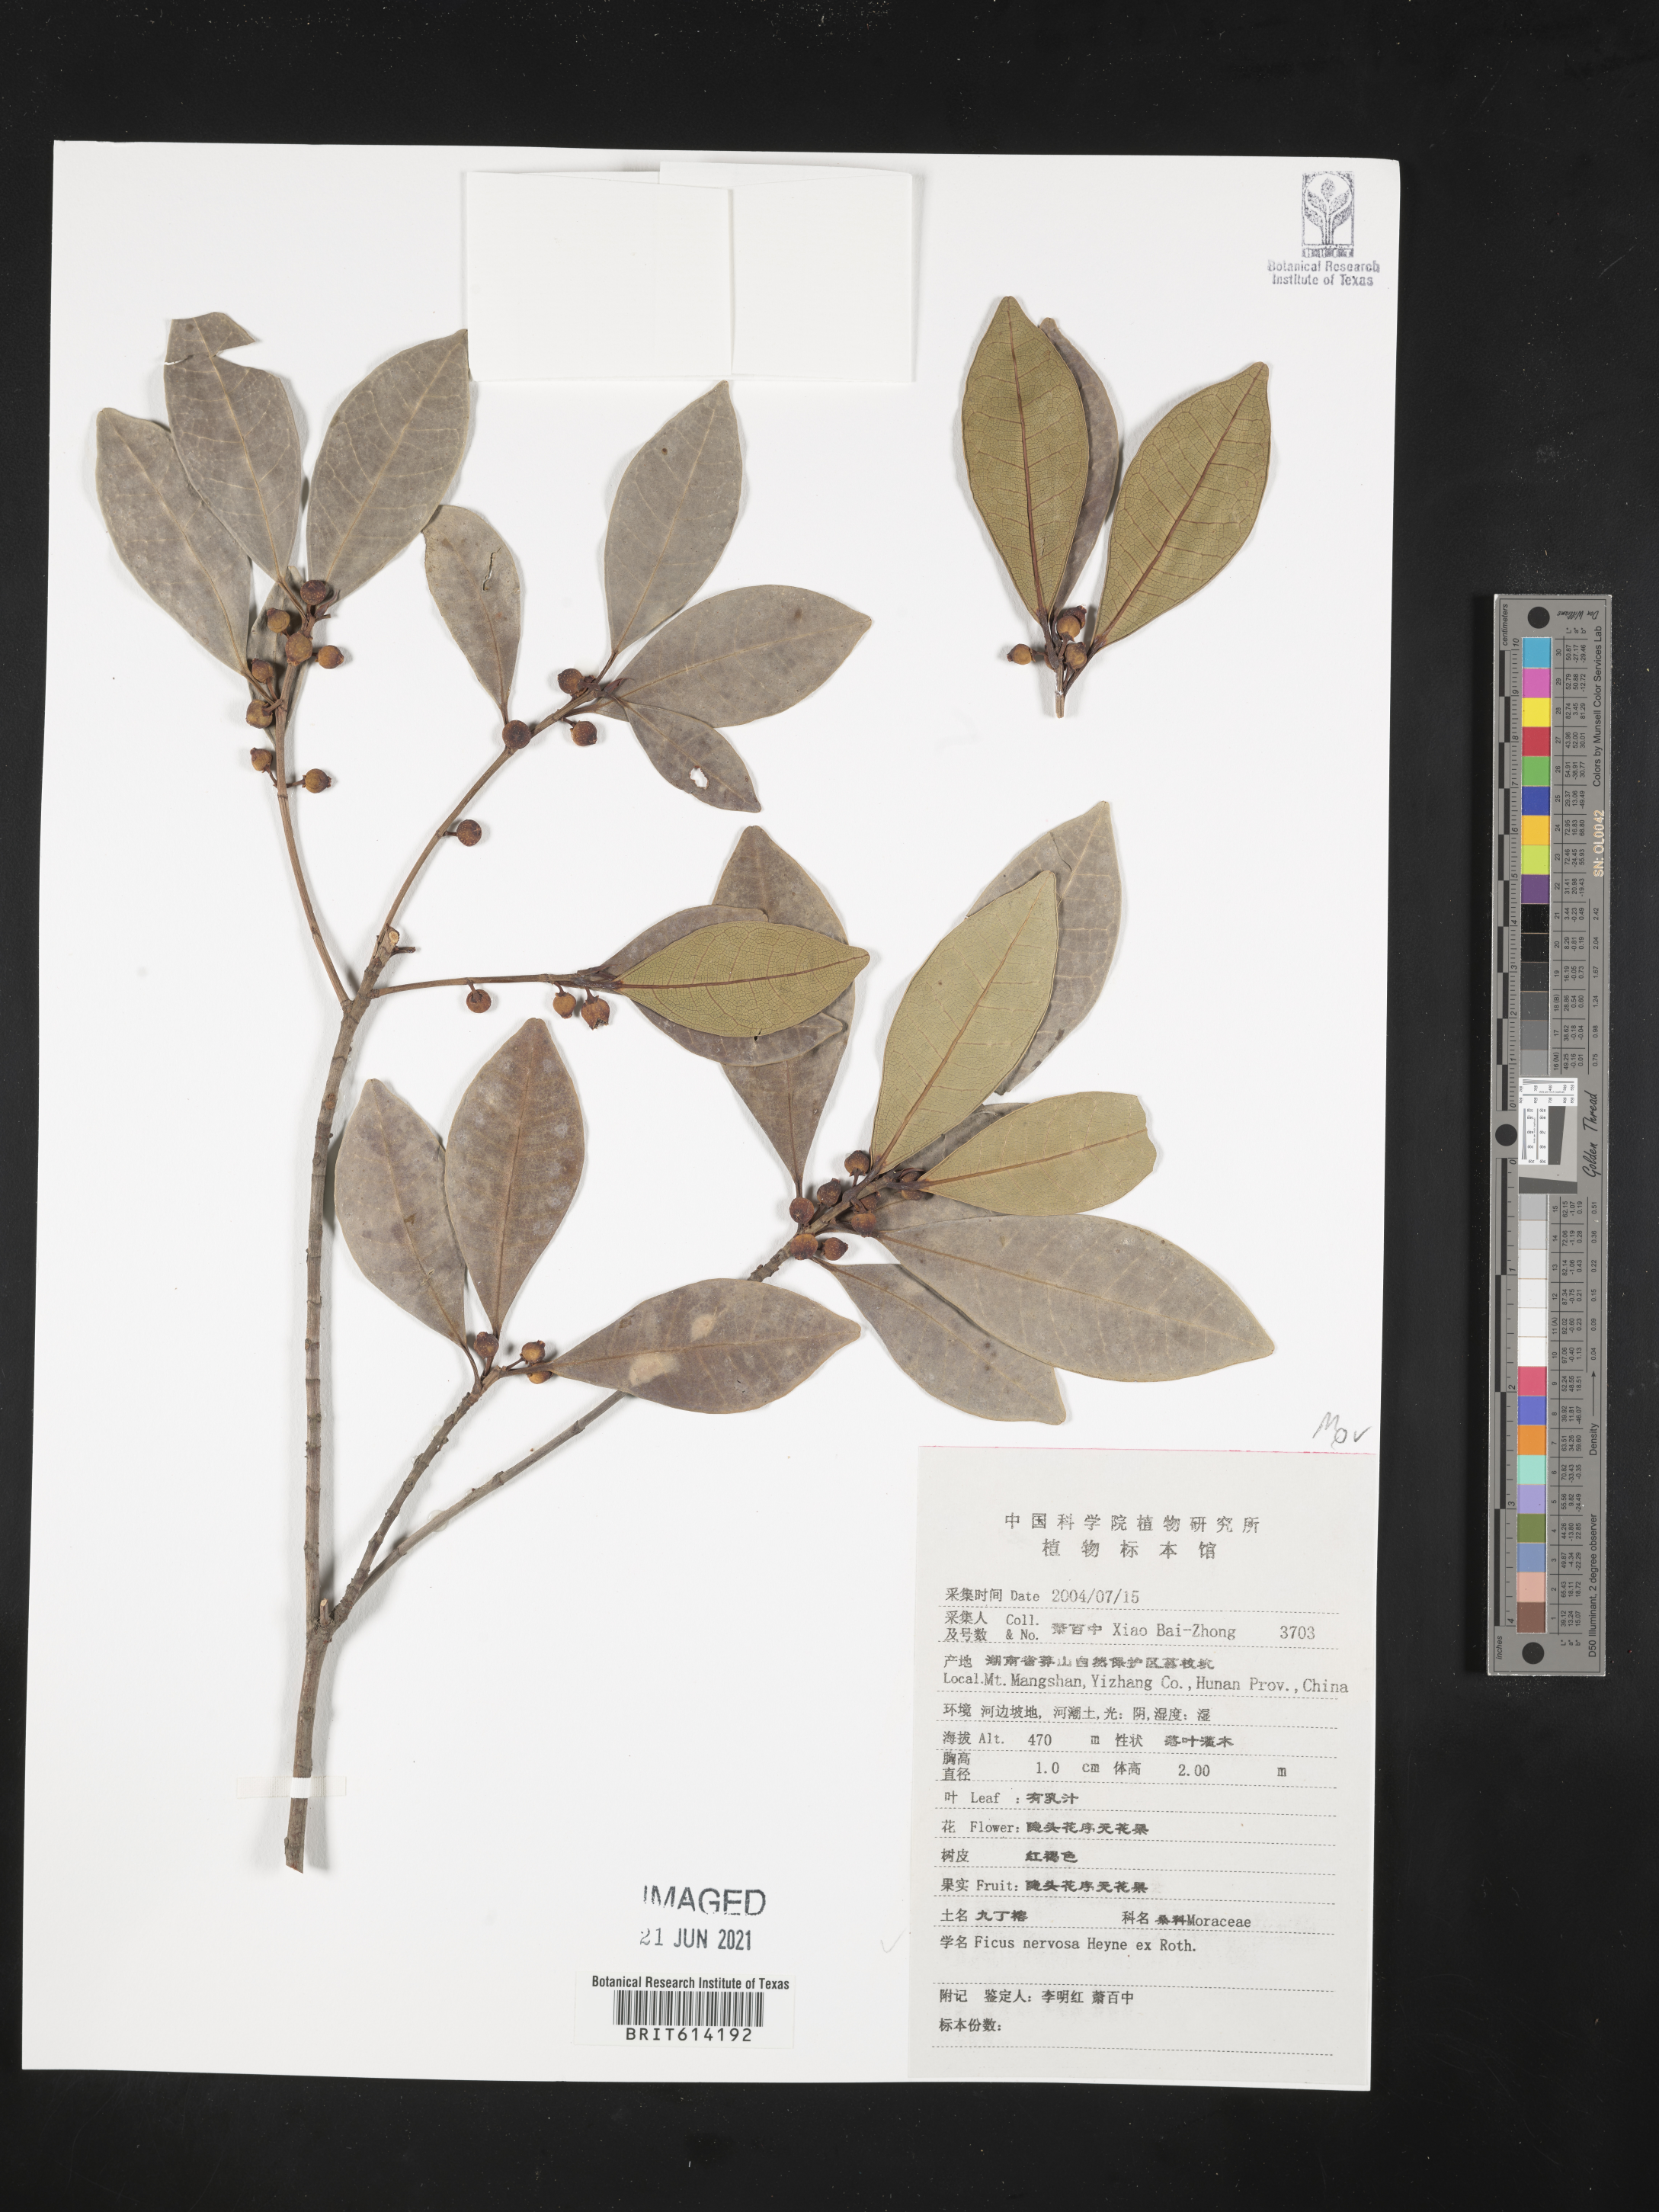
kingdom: Plantae
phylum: Tracheophyta
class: Magnoliopsida
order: Rosales
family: Moraceae
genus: Ficus
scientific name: Ficus nervosa
